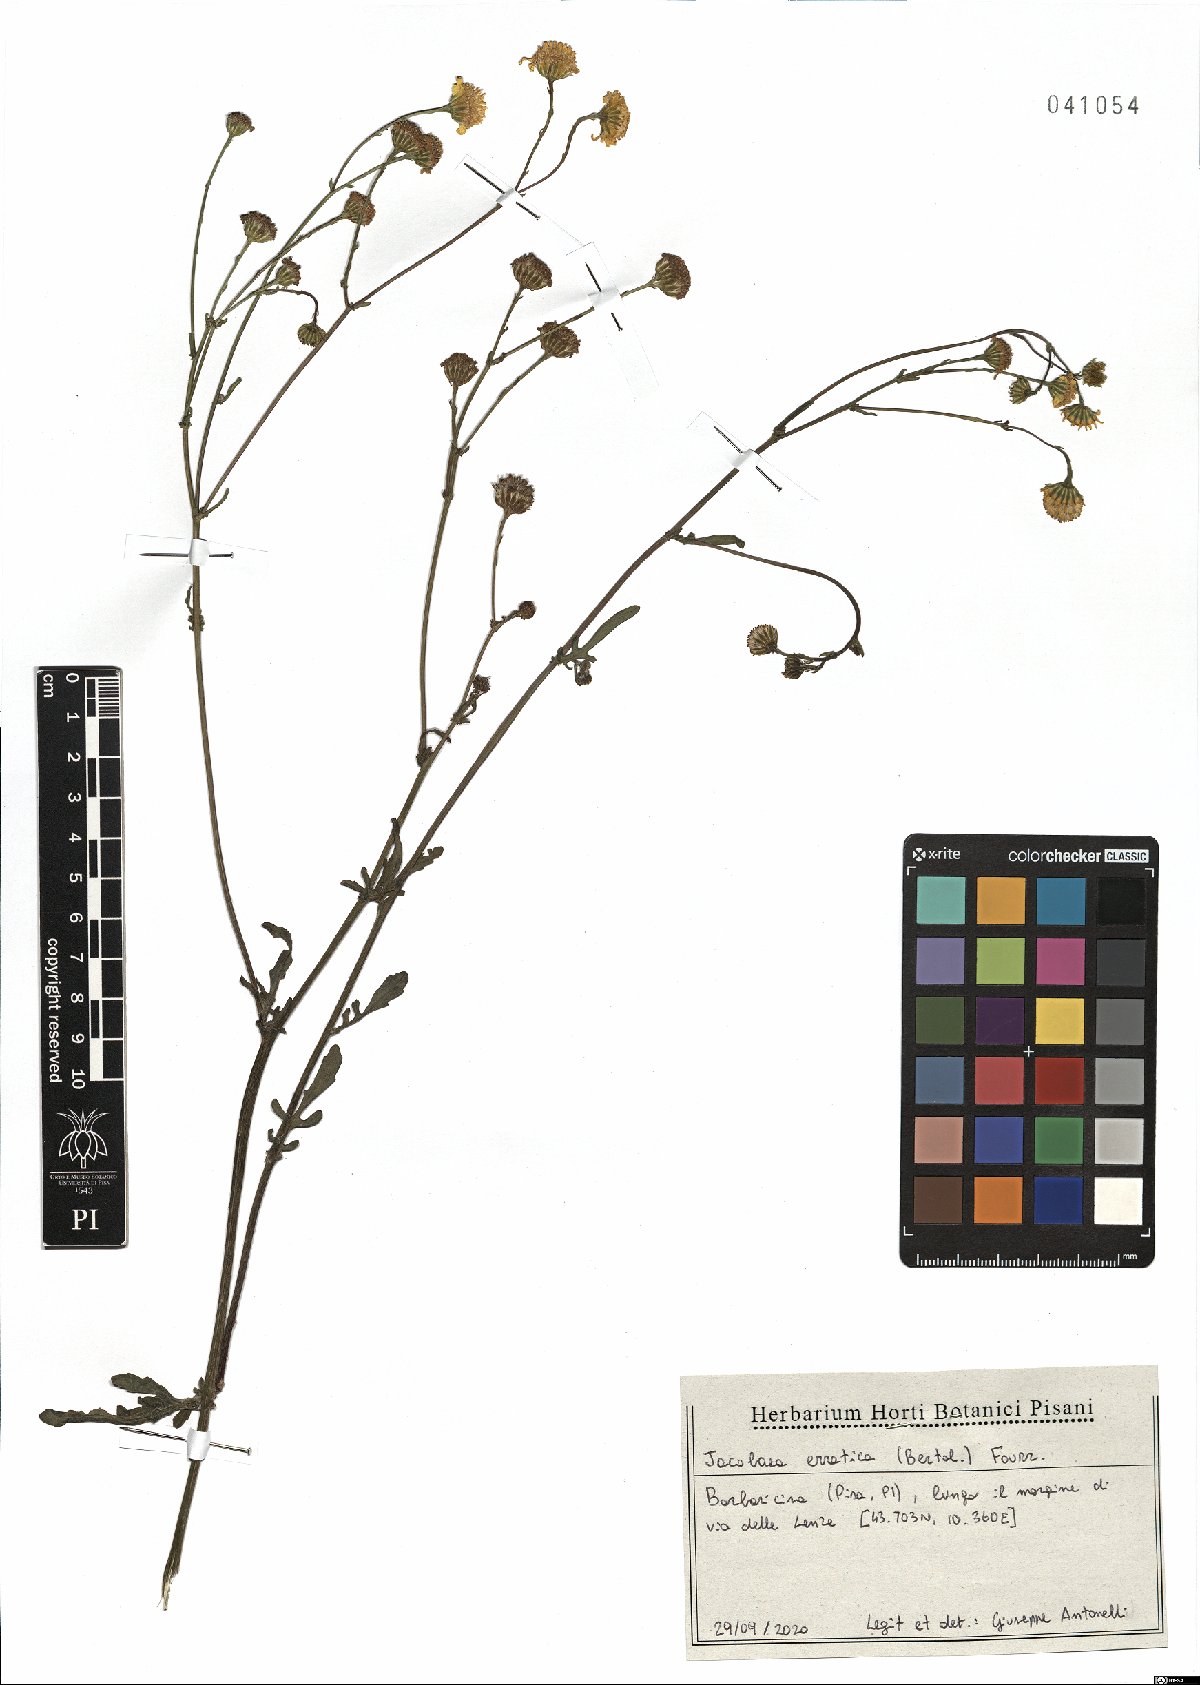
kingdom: Plantae
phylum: Tracheophyta
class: Magnoliopsida
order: Asterales
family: Asteraceae
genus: Jacobaea
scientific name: Jacobaea erratica
